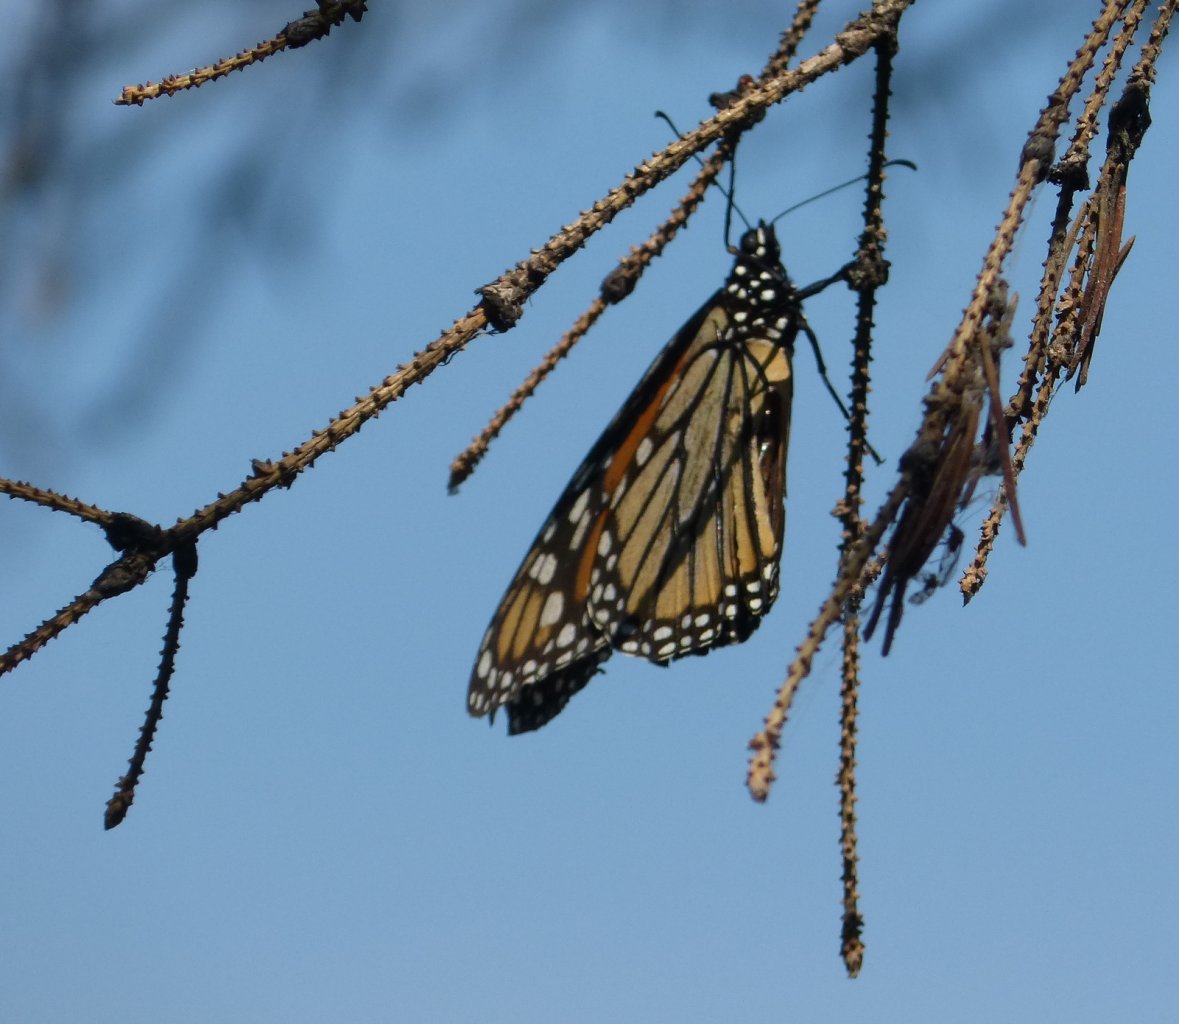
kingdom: Animalia
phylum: Arthropoda
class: Insecta
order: Lepidoptera
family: Nymphalidae
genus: Danaus
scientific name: Danaus plexippus
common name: Monarch
